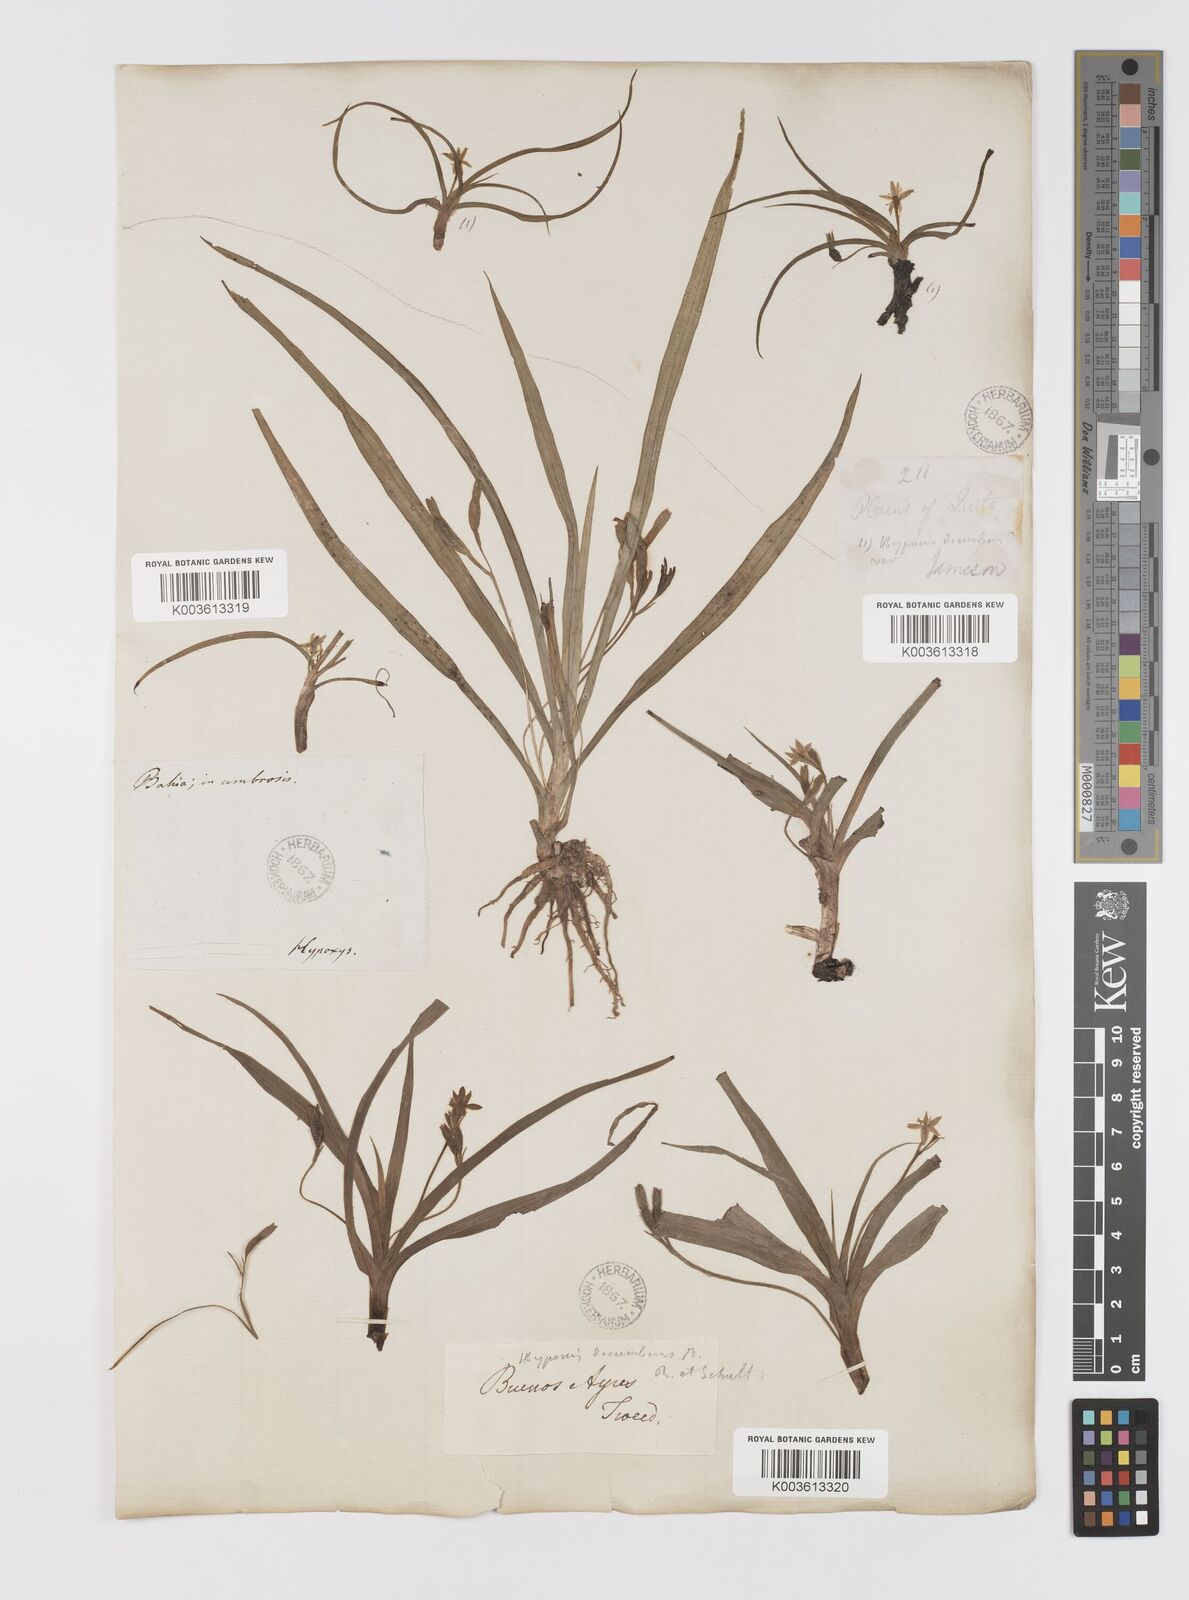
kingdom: Plantae
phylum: Tracheophyta
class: Liliopsida
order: Asparagales
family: Hypoxidaceae
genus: Hypoxis
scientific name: Hypoxis decumbens
